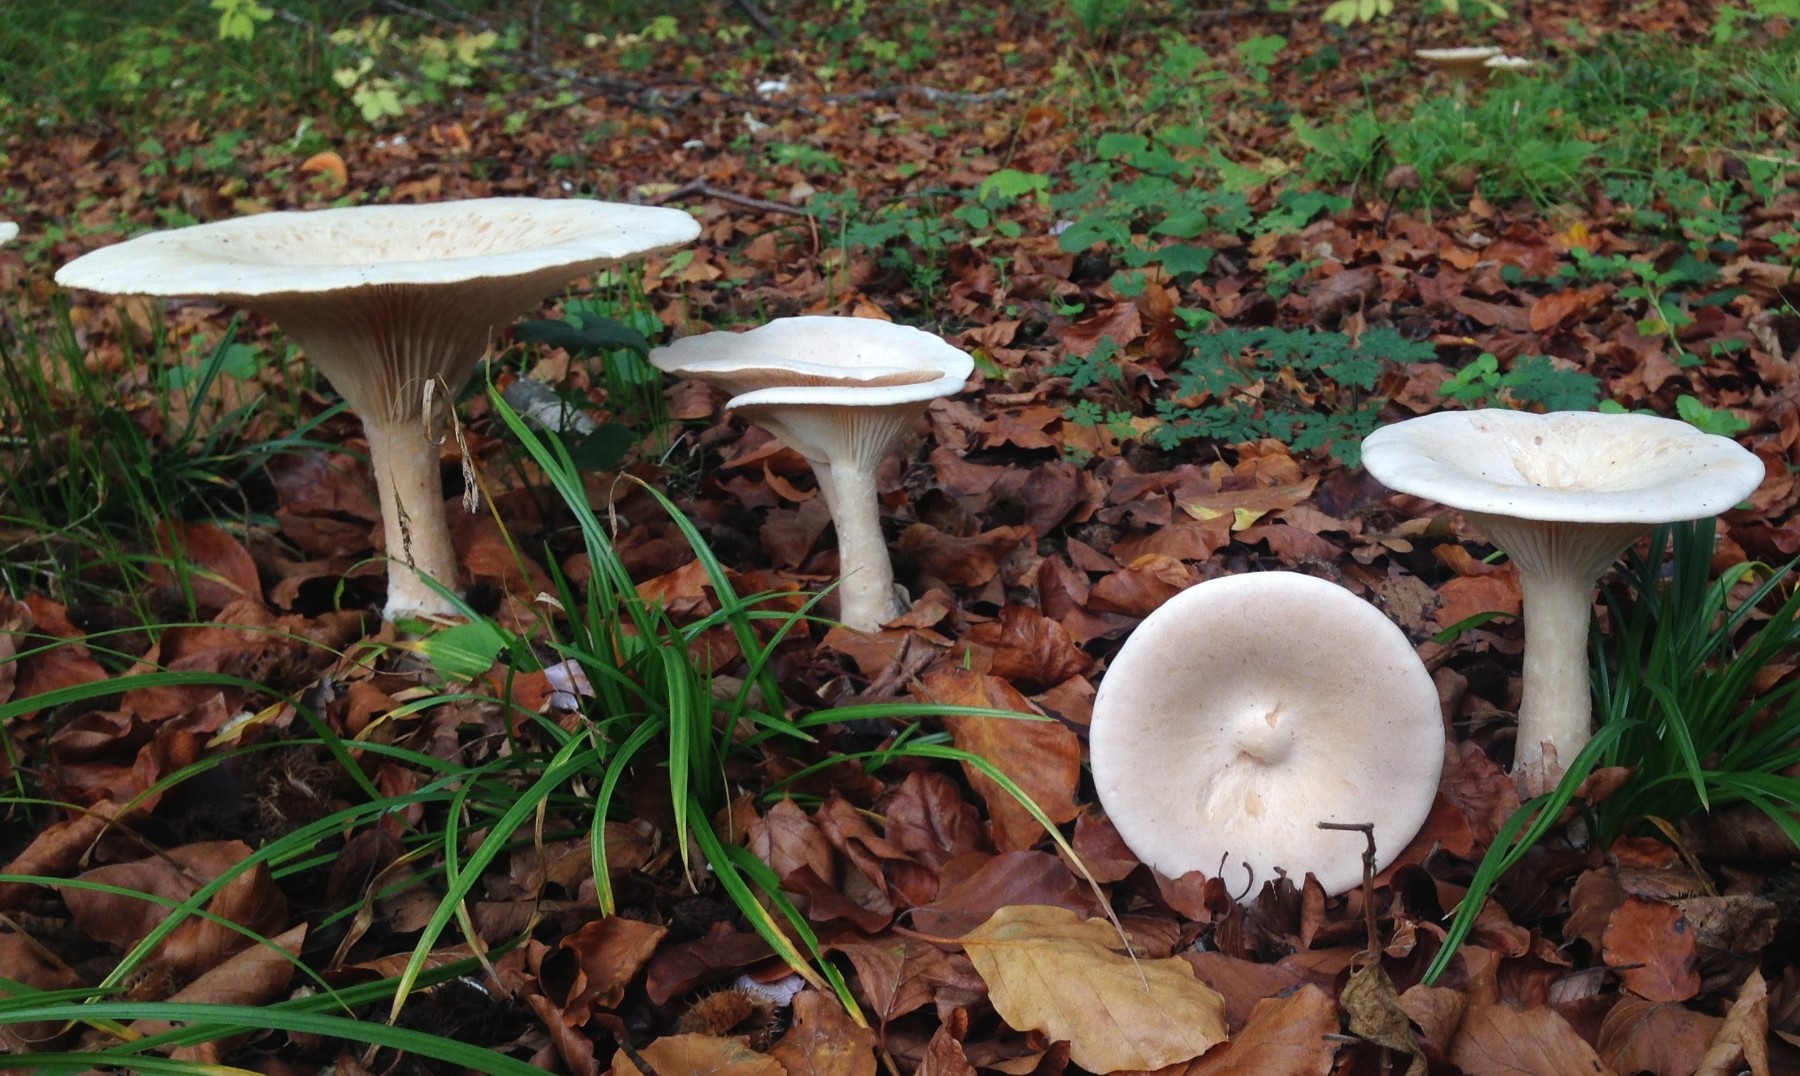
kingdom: Fungi
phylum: Basidiomycota
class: Agaricomycetes
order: Agaricales
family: Tricholomataceae
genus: Infundibulicybe
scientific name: Infundibulicybe geotropa
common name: stor tragthat
